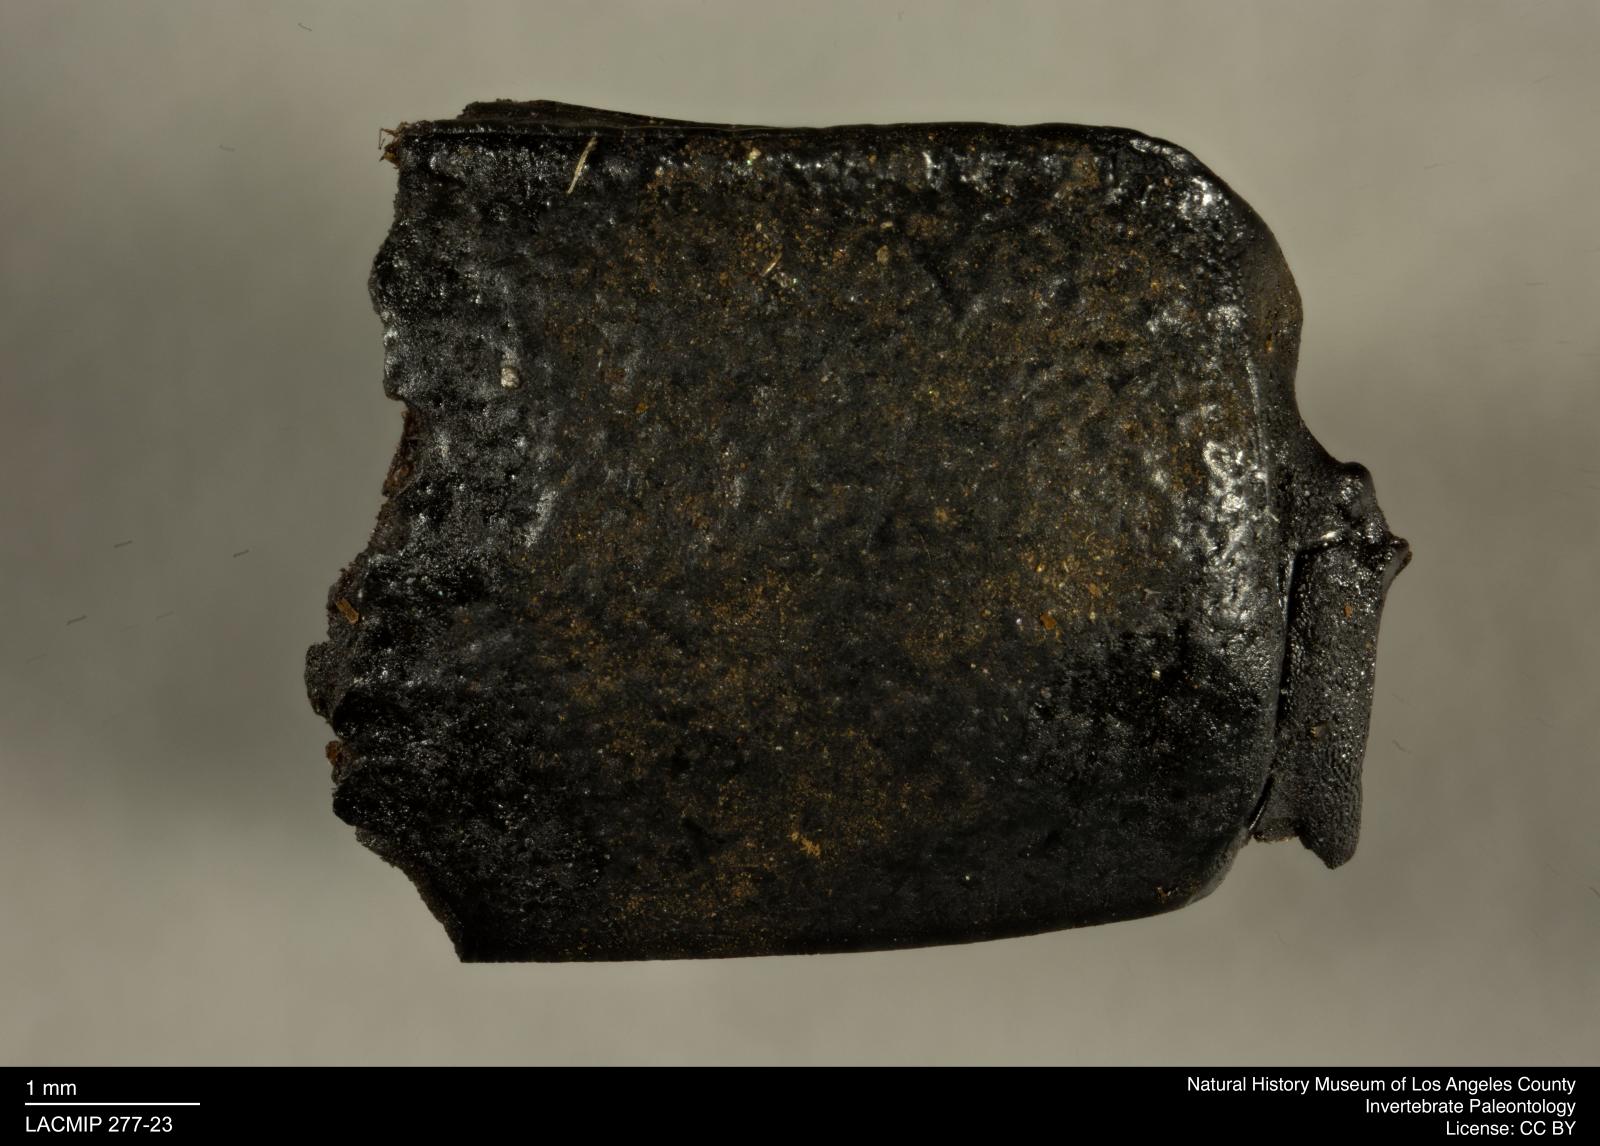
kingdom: Animalia
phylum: Arthropoda
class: Insecta
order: Coleoptera
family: Tenebrionidae
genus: Coniontis
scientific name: Coniontis abdominalis
